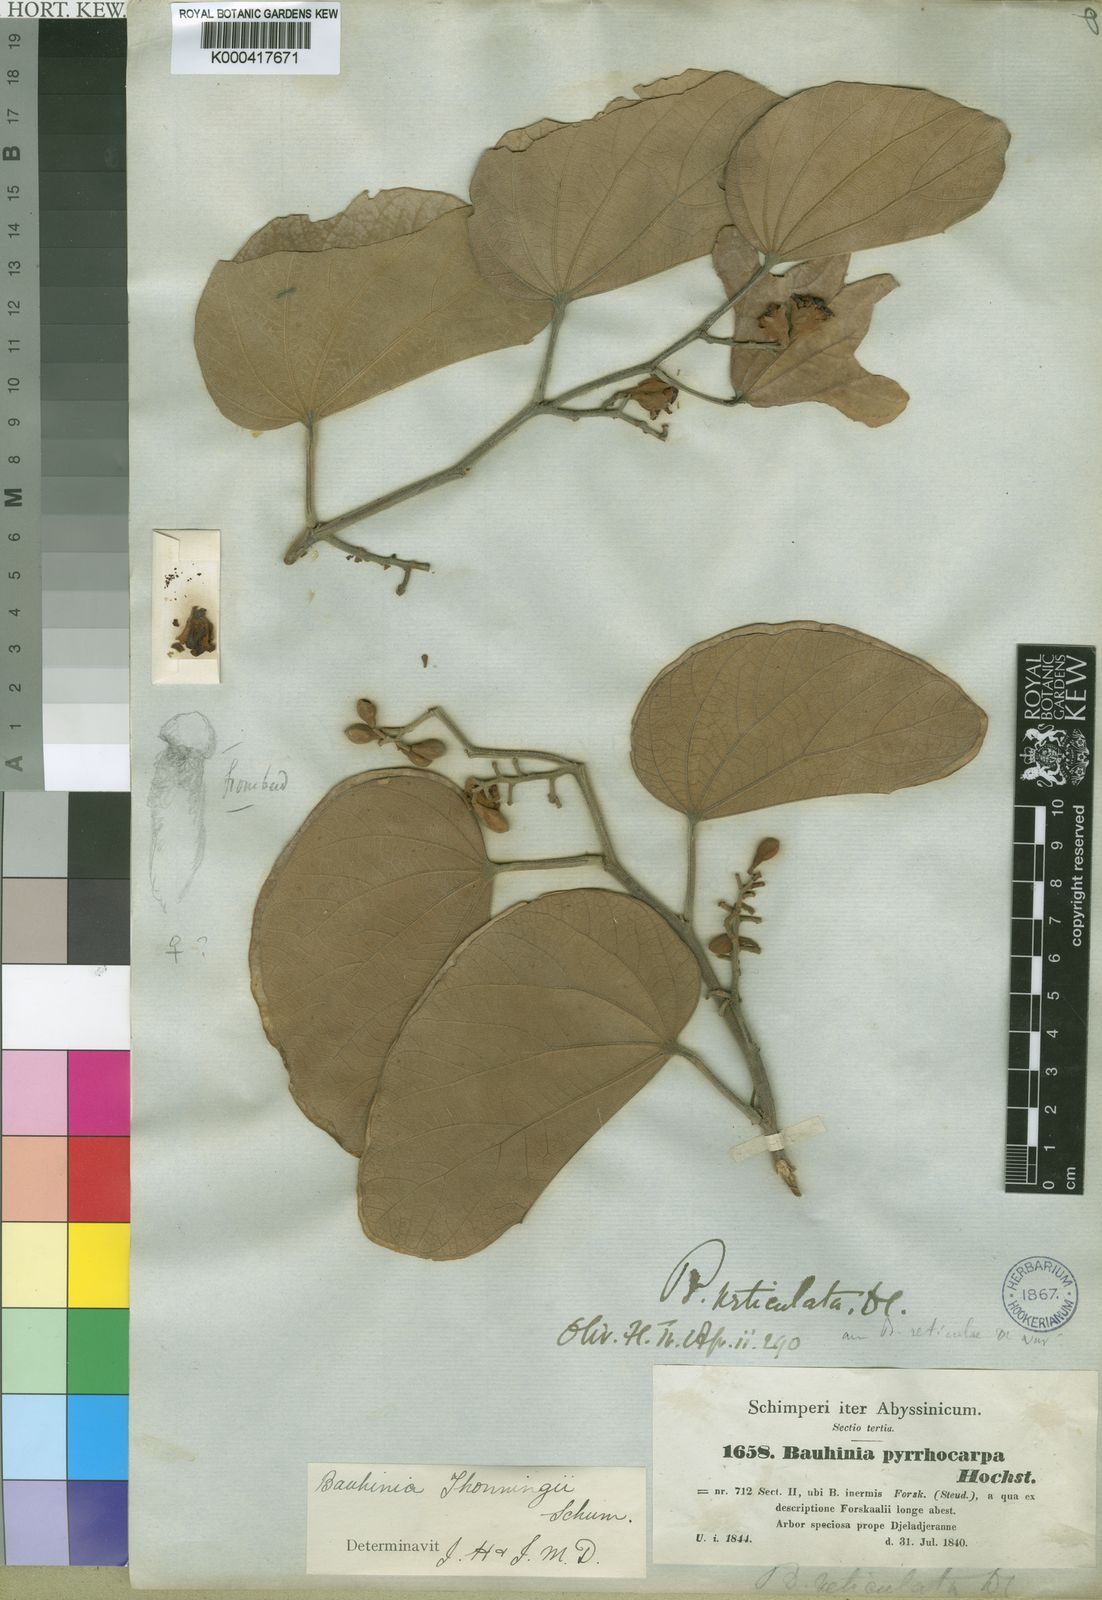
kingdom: Plantae
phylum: Tracheophyta
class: Magnoliopsida
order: Fabales
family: Fabaceae
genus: Piliostigma
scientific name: Piliostigma thonningii
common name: Kao
